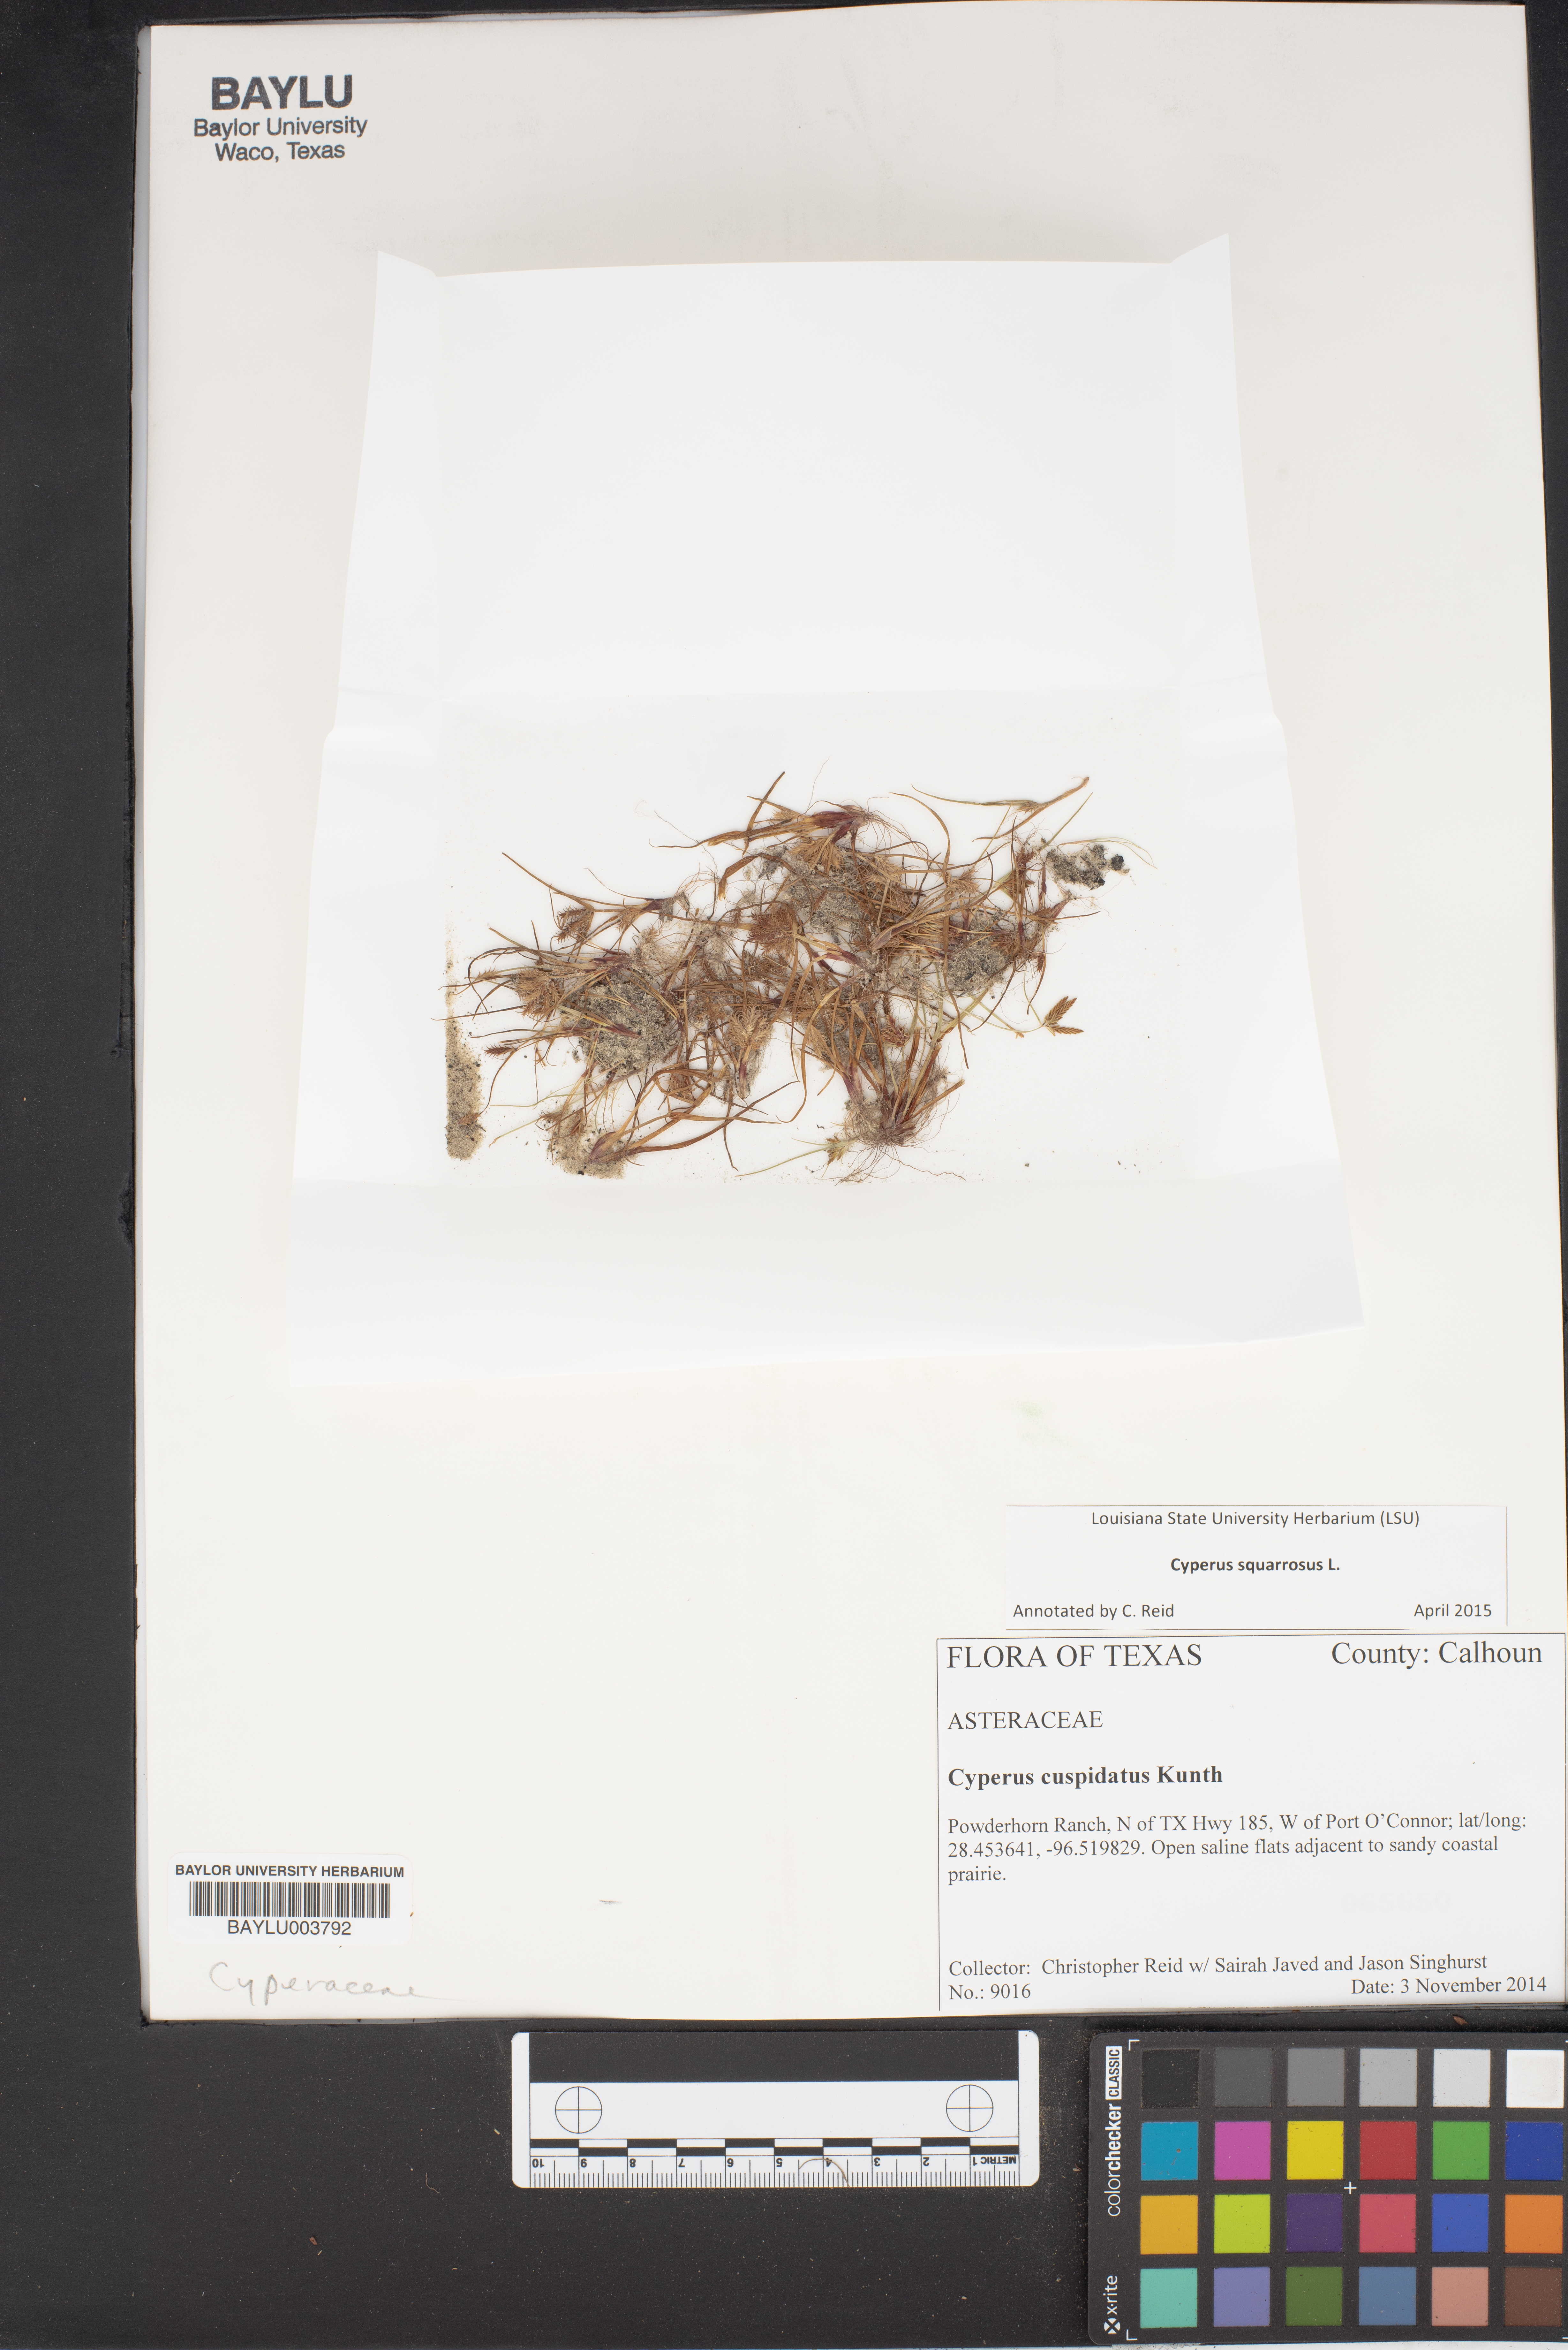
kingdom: Plantae
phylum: Tracheophyta
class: Liliopsida
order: Poales
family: Cyperaceae
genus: Cyperus
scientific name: Cyperus cuspidatus
